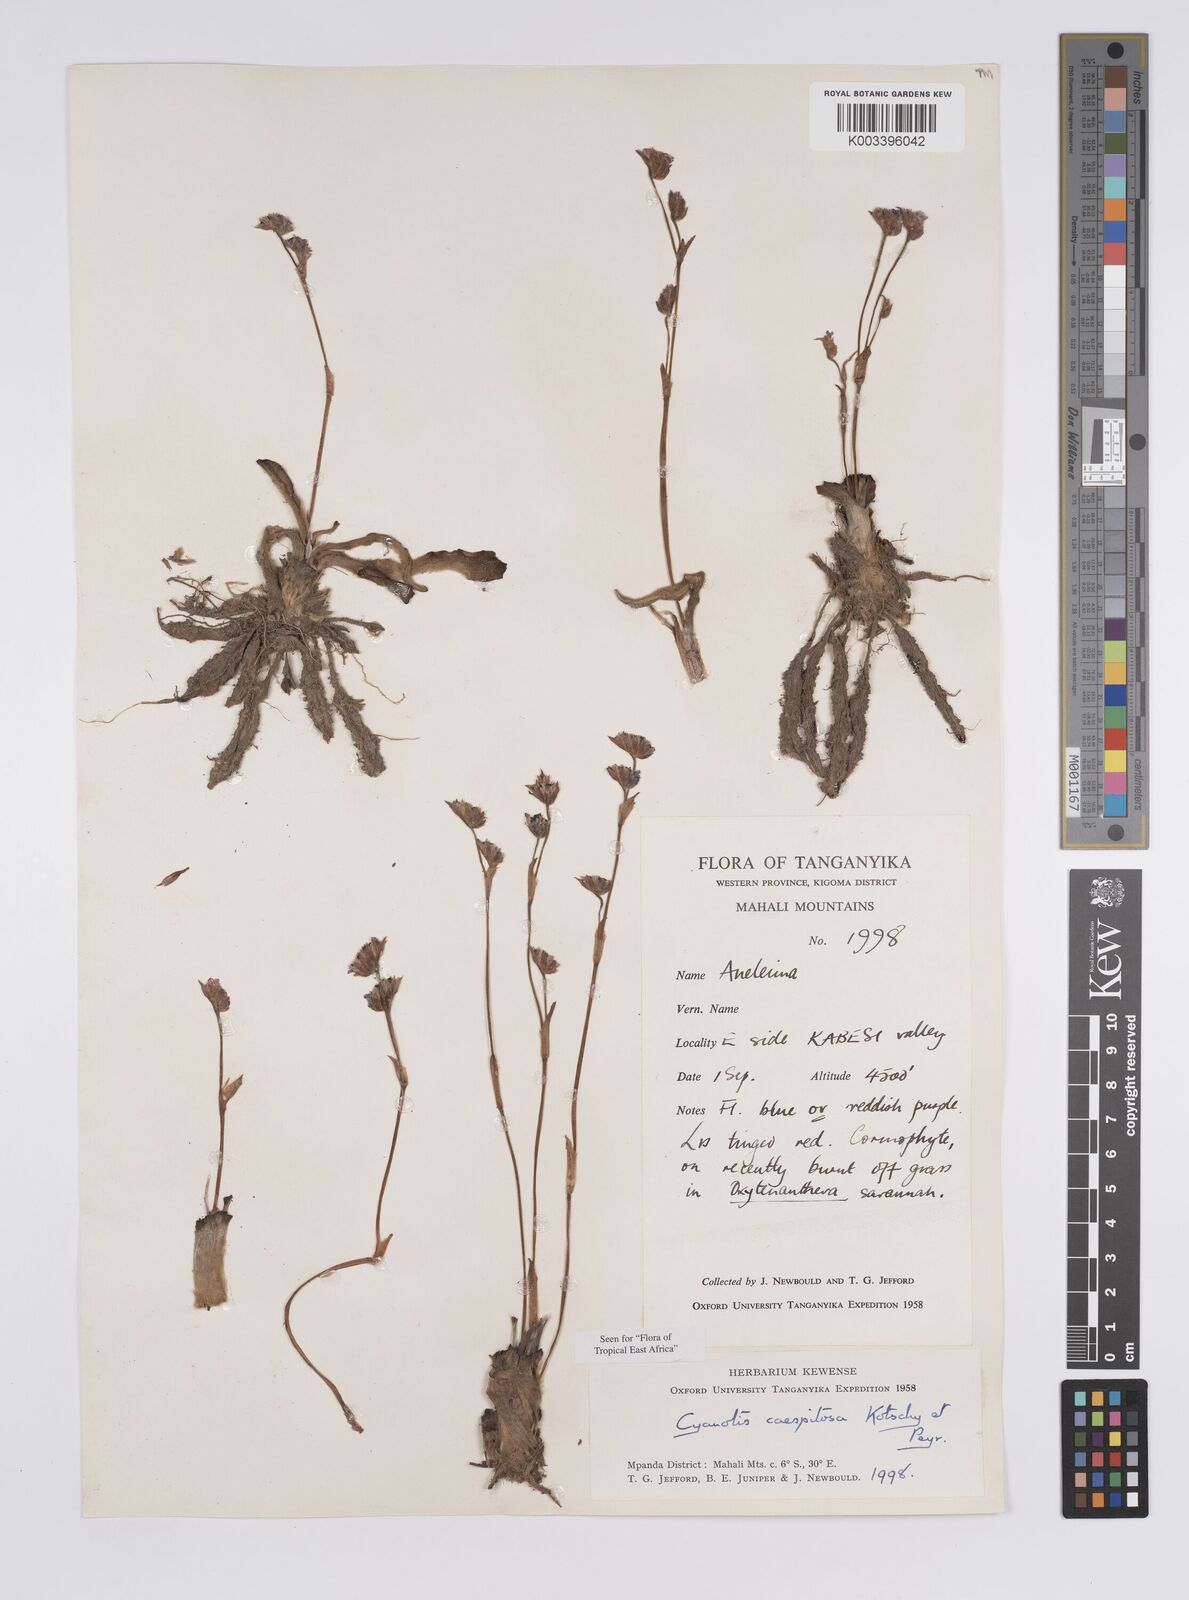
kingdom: Plantae
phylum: Tracheophyta
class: Liliopsida
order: Commelinales
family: Commelinaceae
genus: Cyanotis
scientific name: Cyanotis caespitosa
